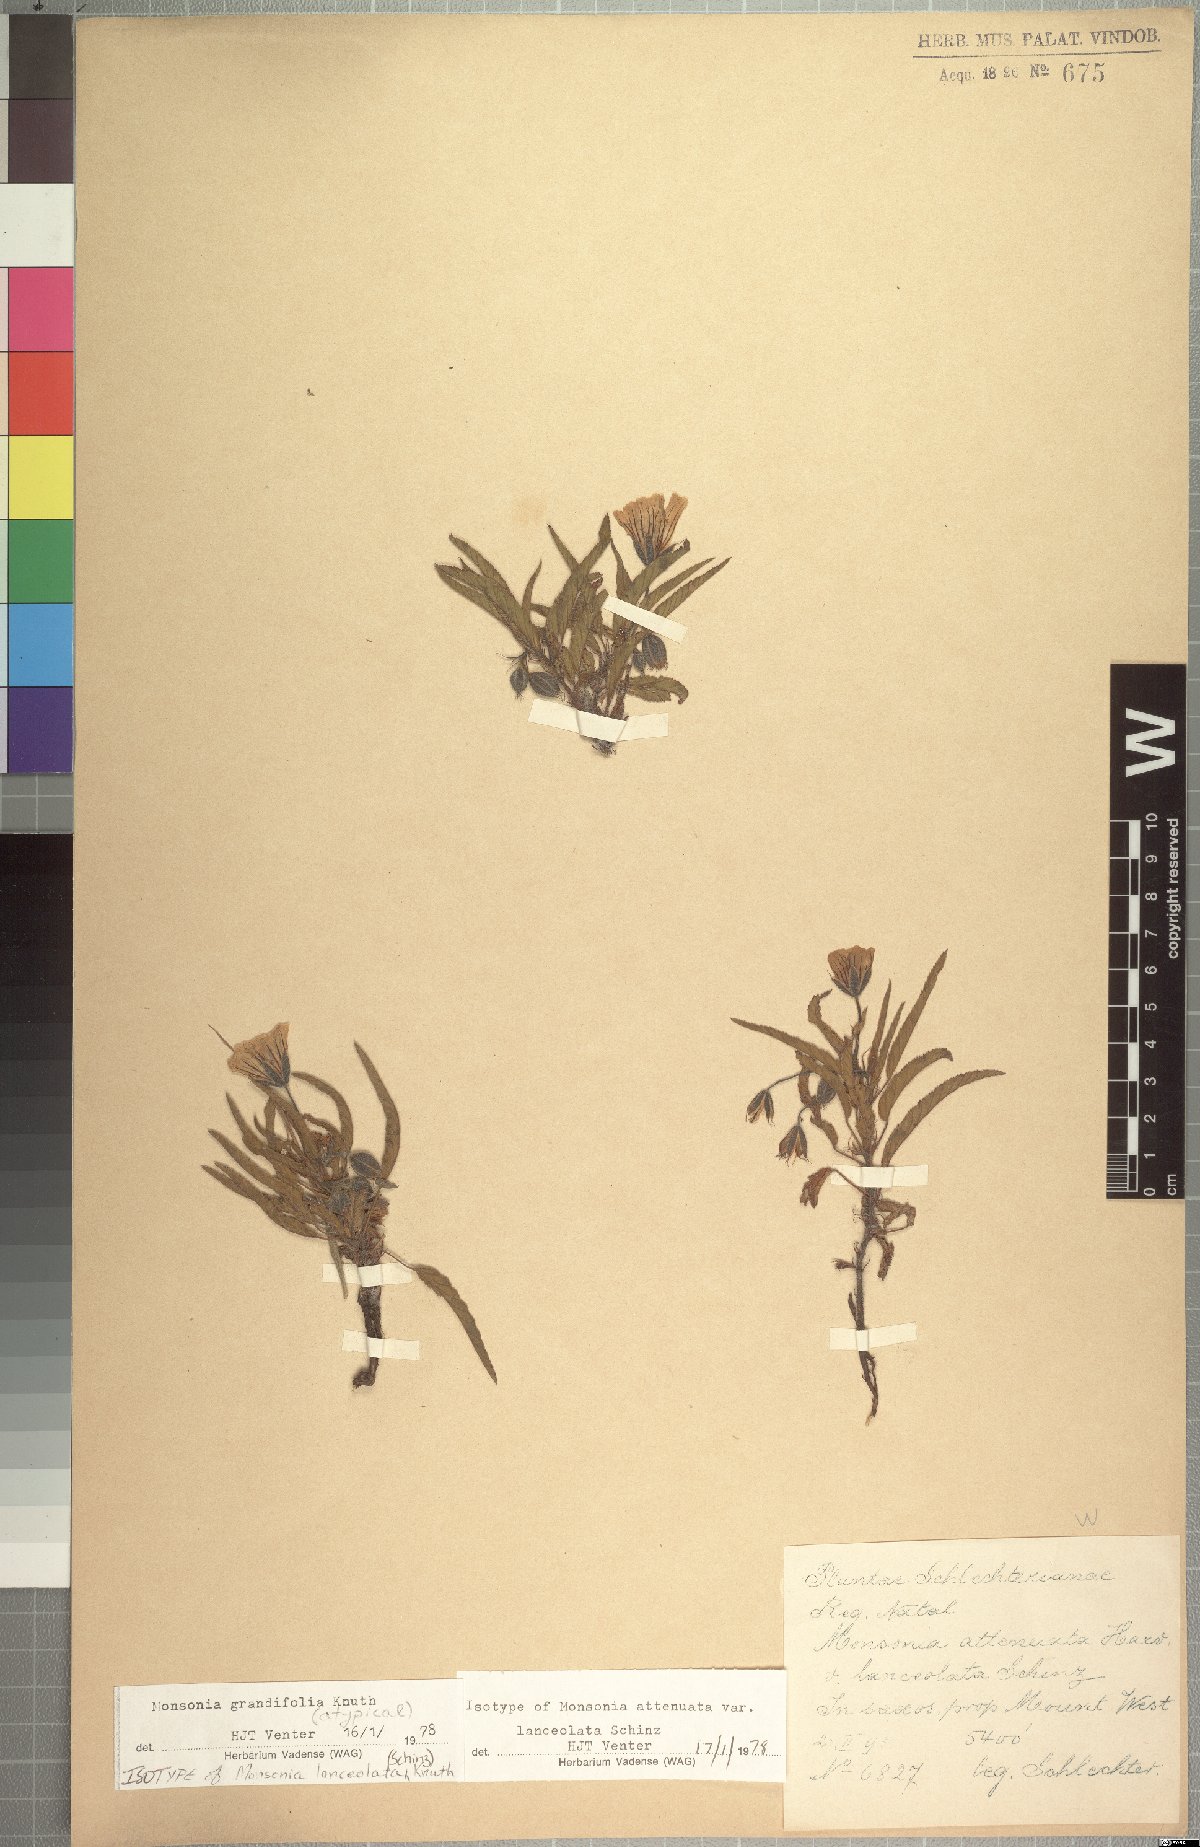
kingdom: Plantae
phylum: Tracheophyta
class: Magnoliopsida
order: Geraniales
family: Geraniaceae
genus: Monsonia
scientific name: Monsonia grandifolia
